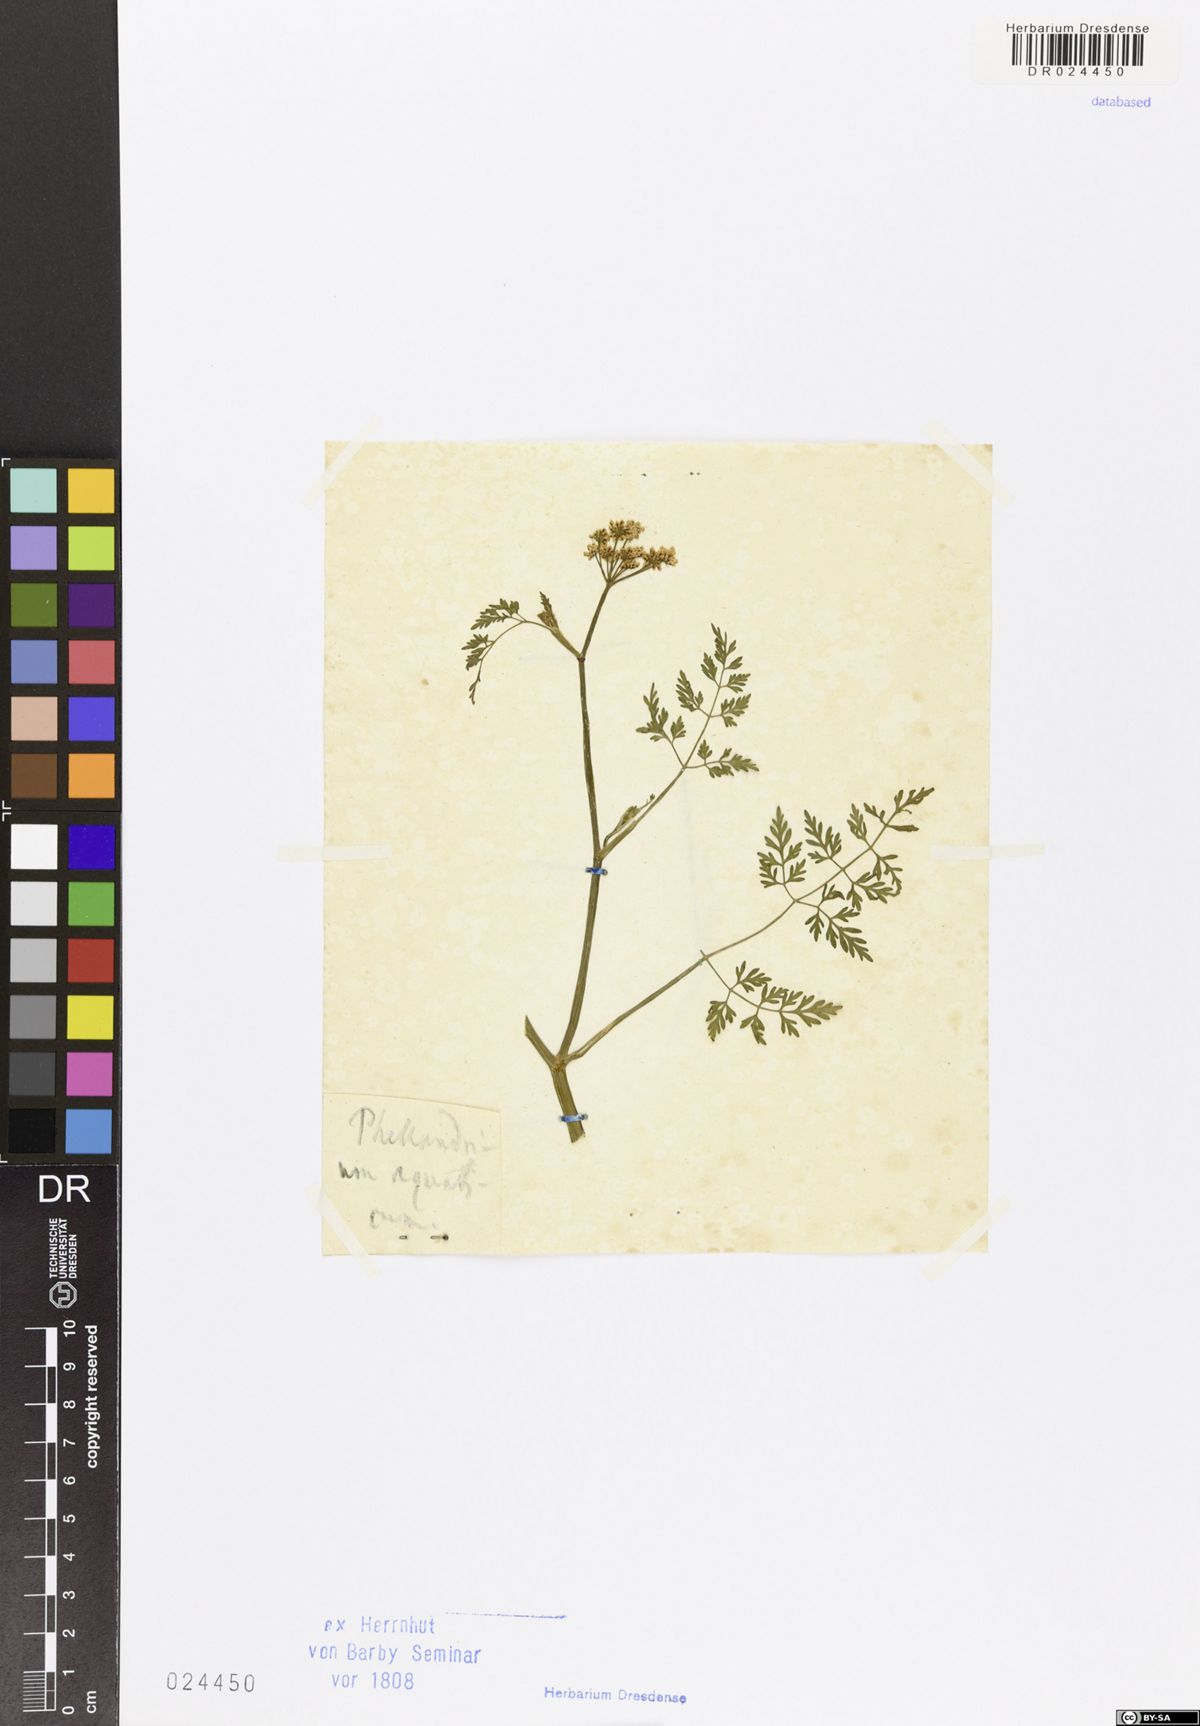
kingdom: Plantae
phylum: Tracheophyta
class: Magnoliopsida
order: Apiales
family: Apiaceae
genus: Oenanthe
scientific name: Oenanthe aquatica
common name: Fine-leaved water-dropwort
